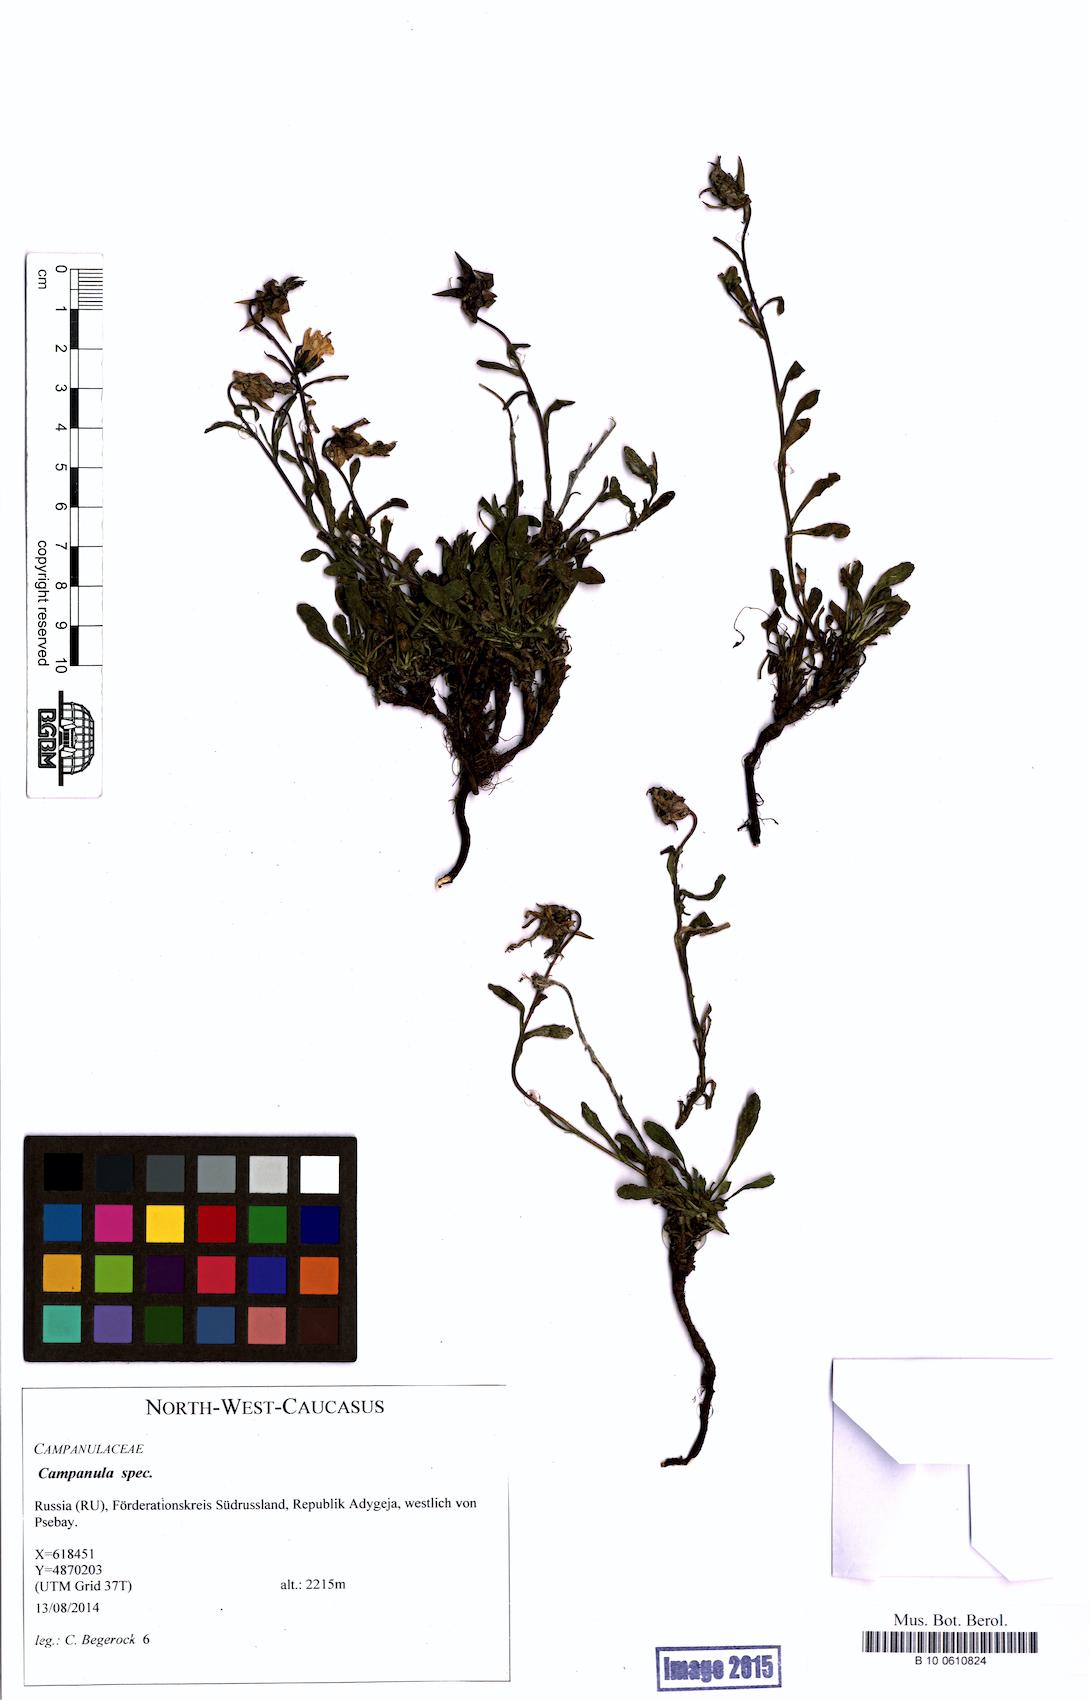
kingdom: Plantae
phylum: Tracheophyta
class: Magnoliopsida
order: Asterales
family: Campanulaceae
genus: Campanula
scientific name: Campanula
